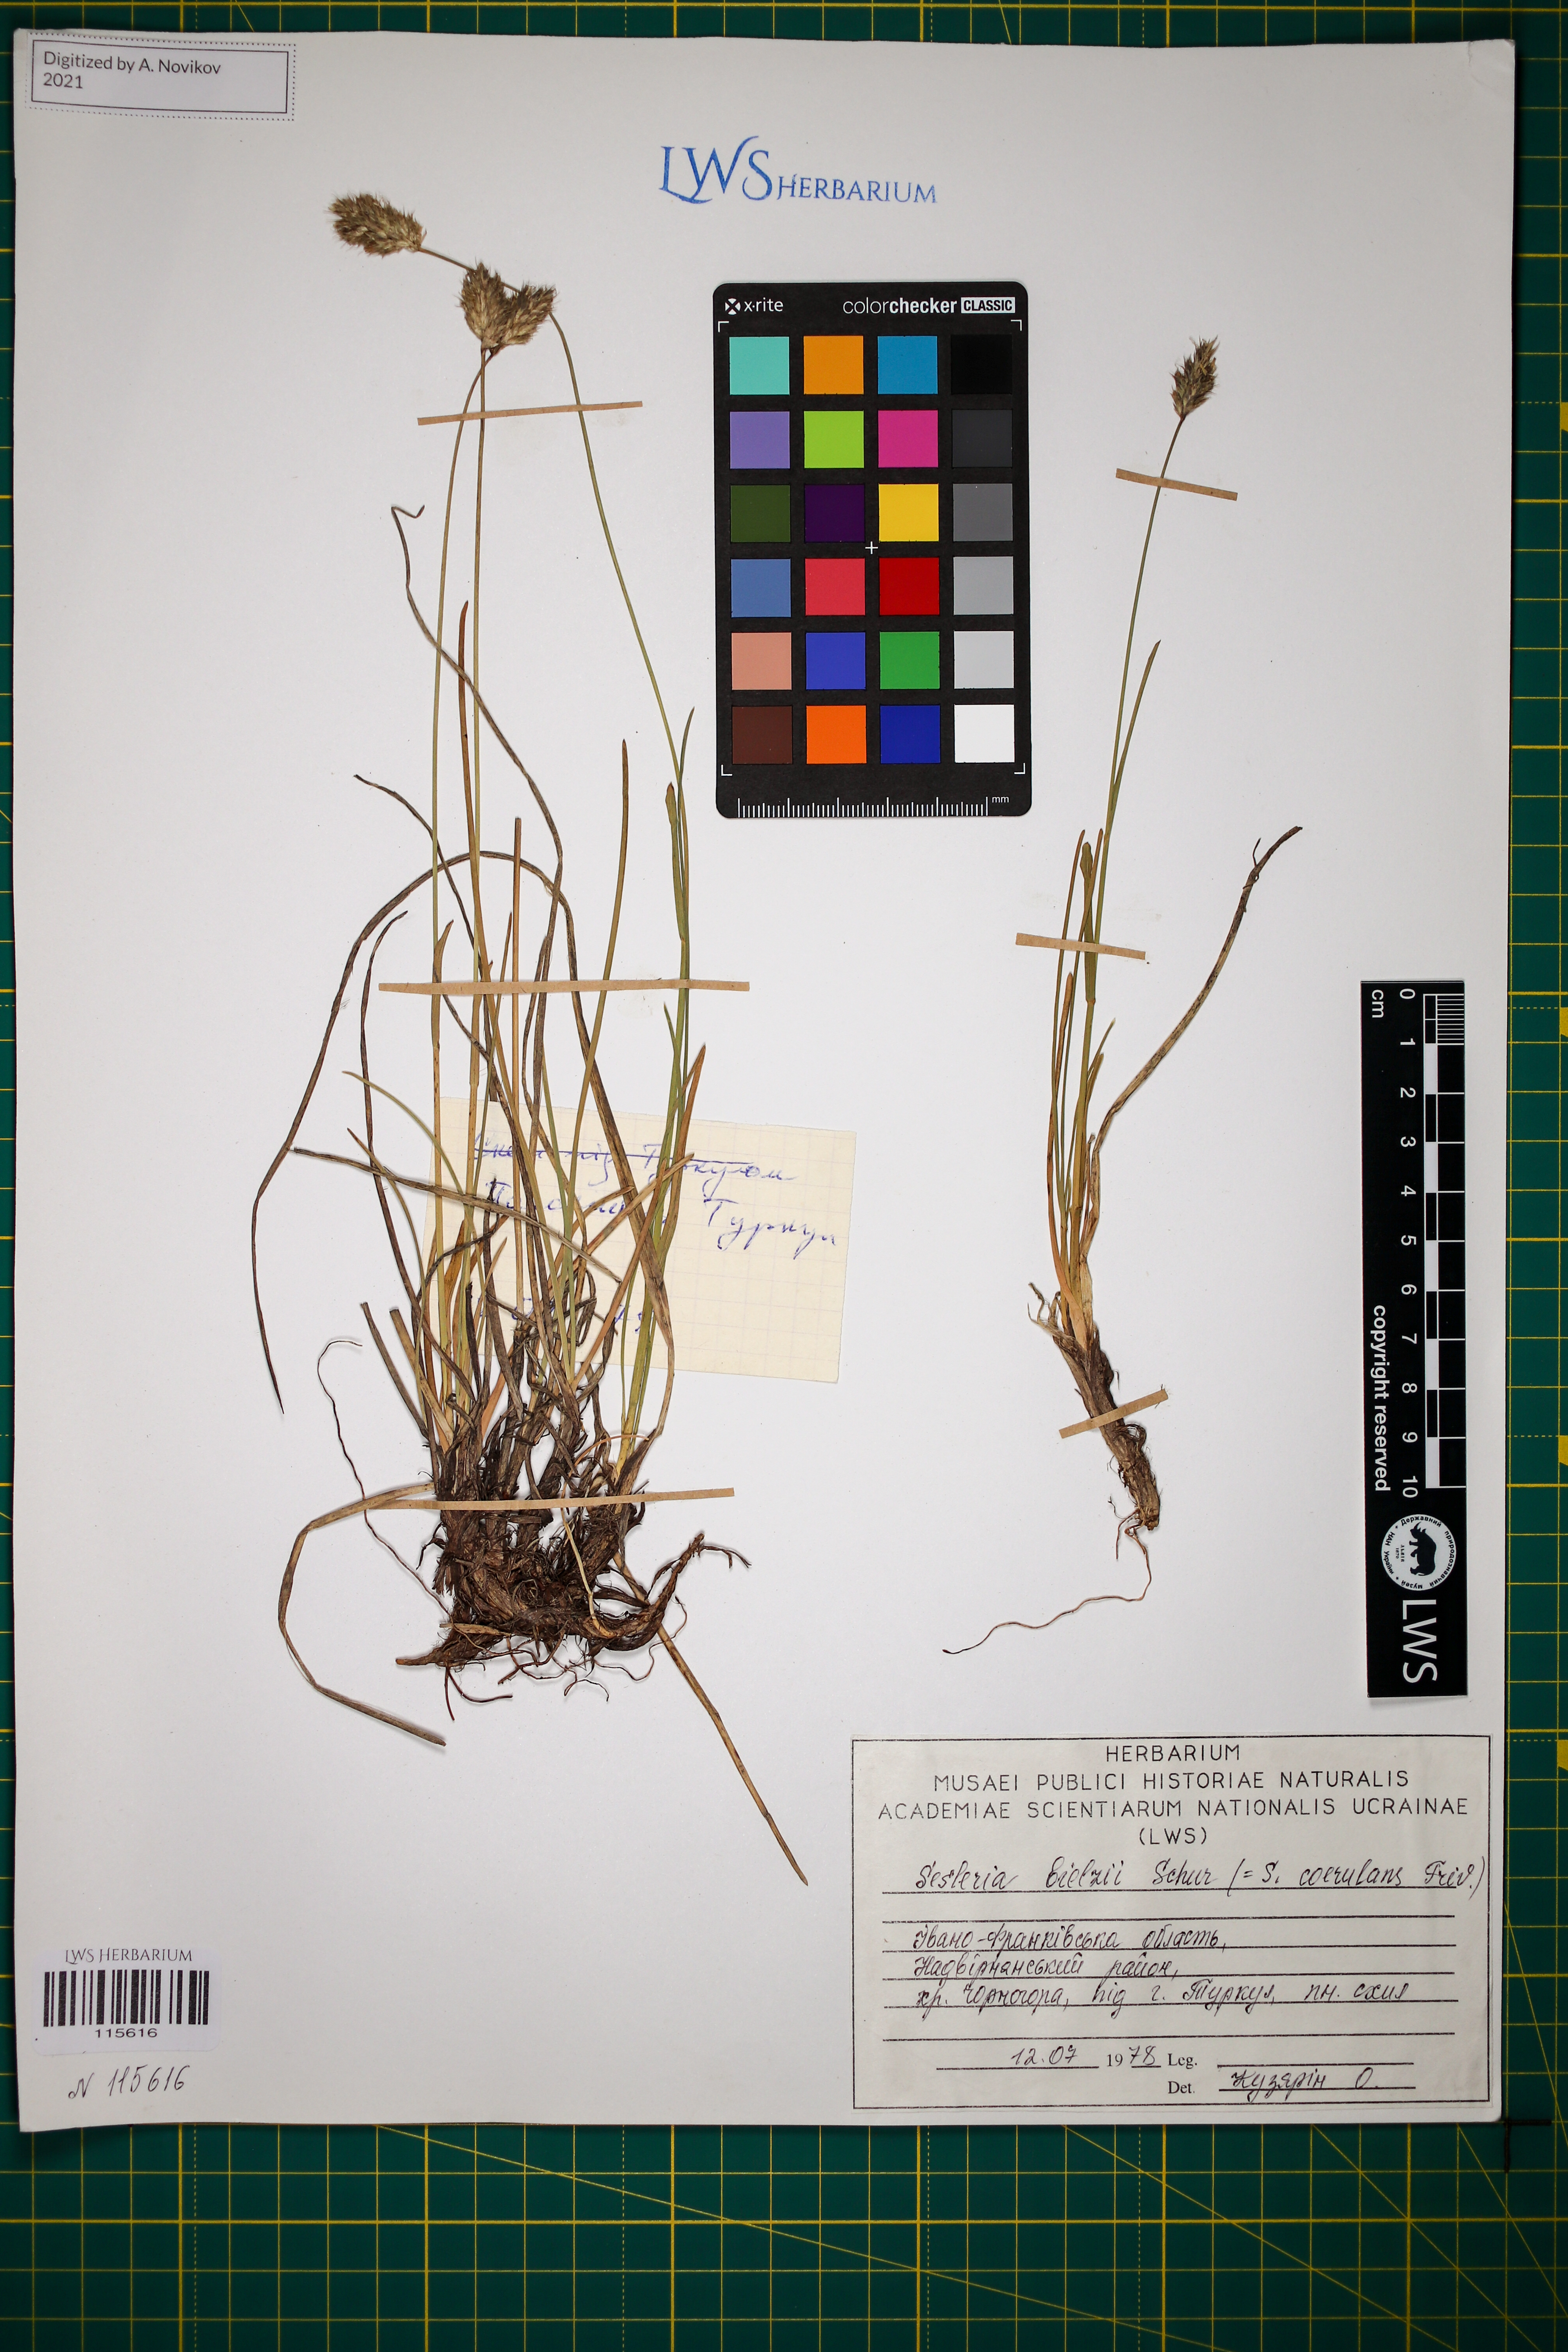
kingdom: Plantae
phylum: Tracheophyta
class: Liliopsida
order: Poales
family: Poaceae
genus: Sesleria
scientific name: Sesleria bielzii
